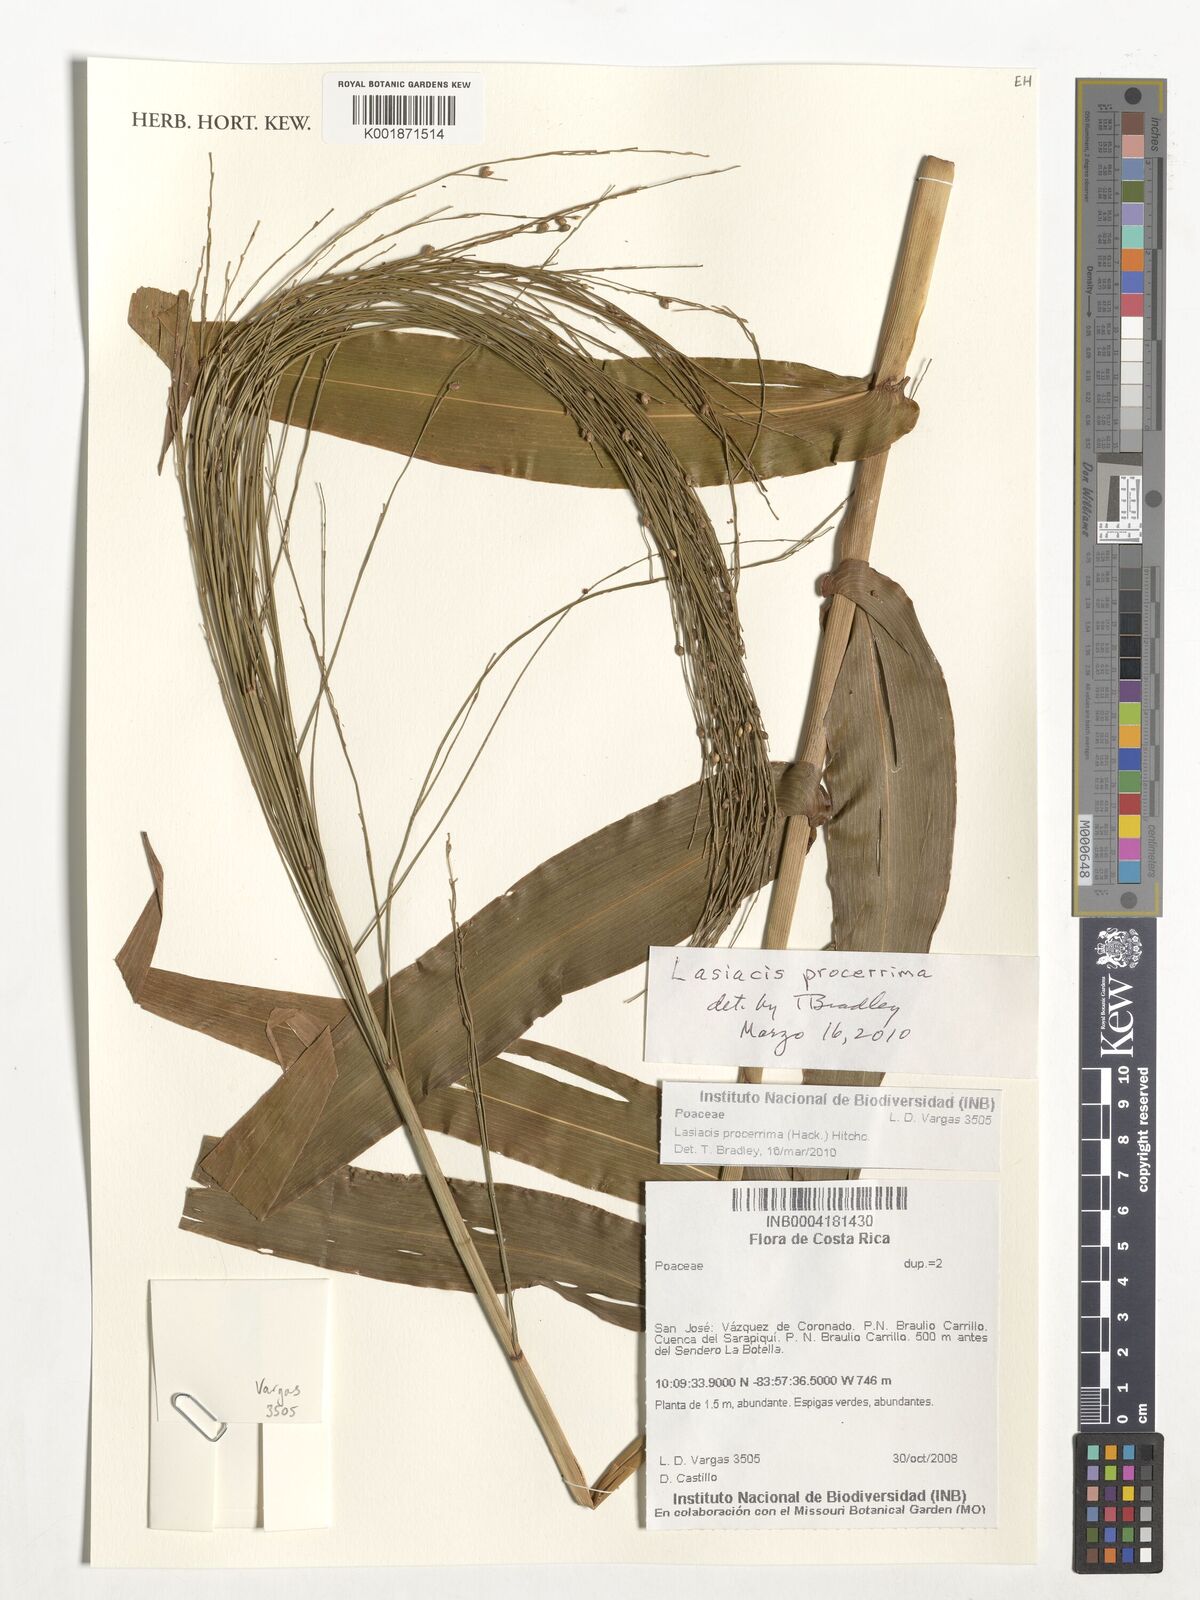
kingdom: Plantae
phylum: Tracheophyta
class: Liliopsida
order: Poales
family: Poaceae
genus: Lasiacis
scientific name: Lasiacis procerrima
